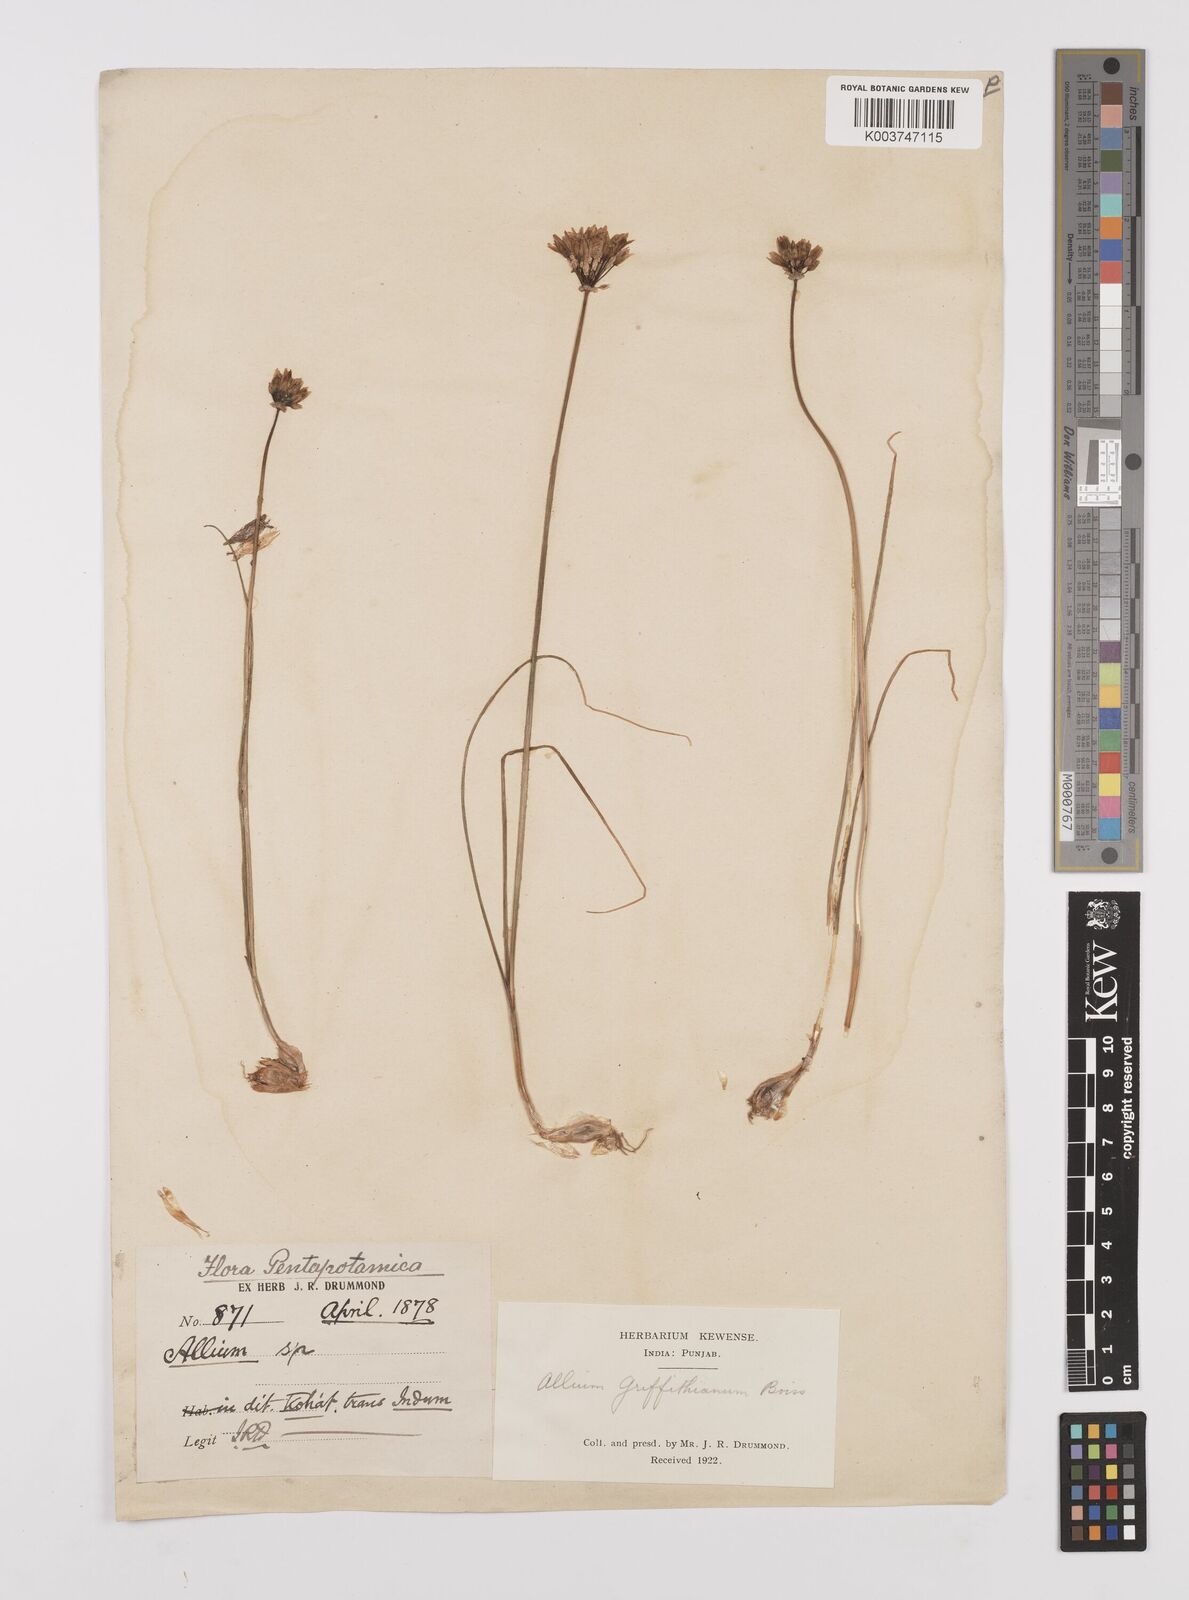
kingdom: Plantae
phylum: Tracheophyta
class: Liliopsida
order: Asparagales
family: Amaryllidaceae
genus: Allium
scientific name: Allium griffithianum
